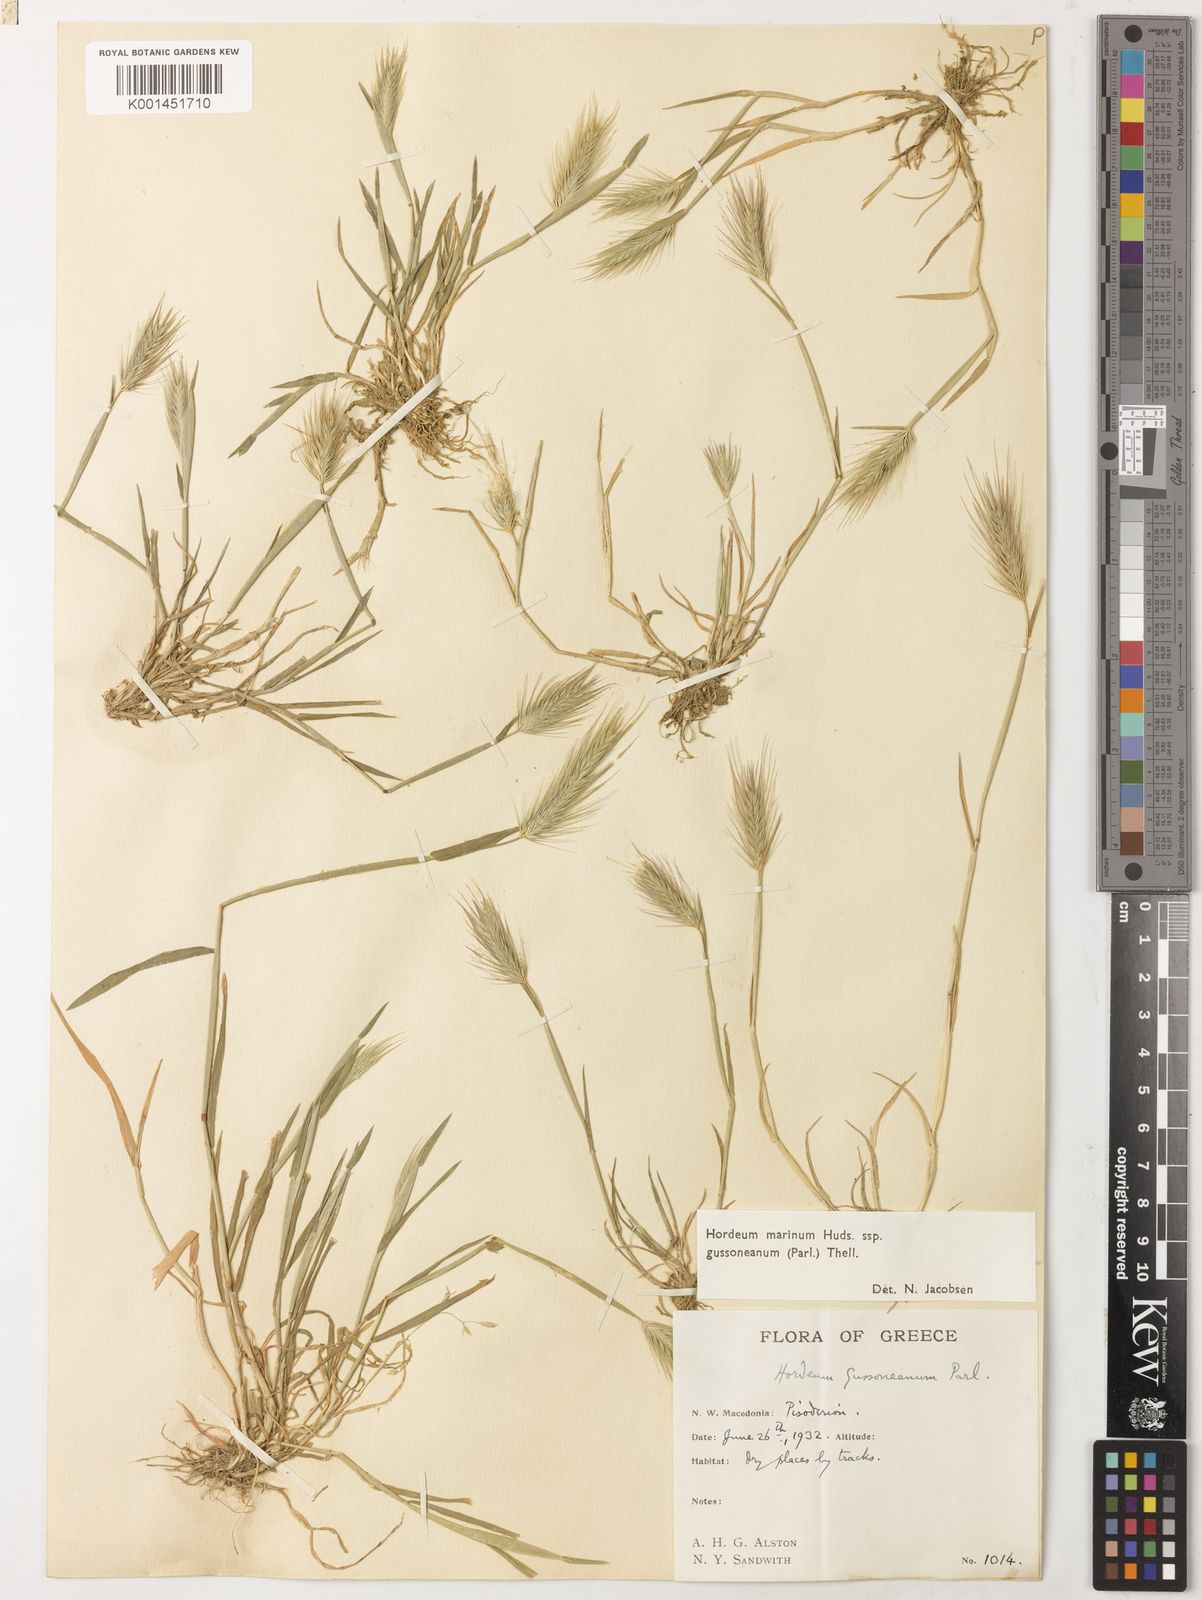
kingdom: Plantae
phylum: Tracheophyta
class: Liliopsida
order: Poales
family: Poaceae
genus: Hordeum
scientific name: Hordeum marinum
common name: Sea barley
